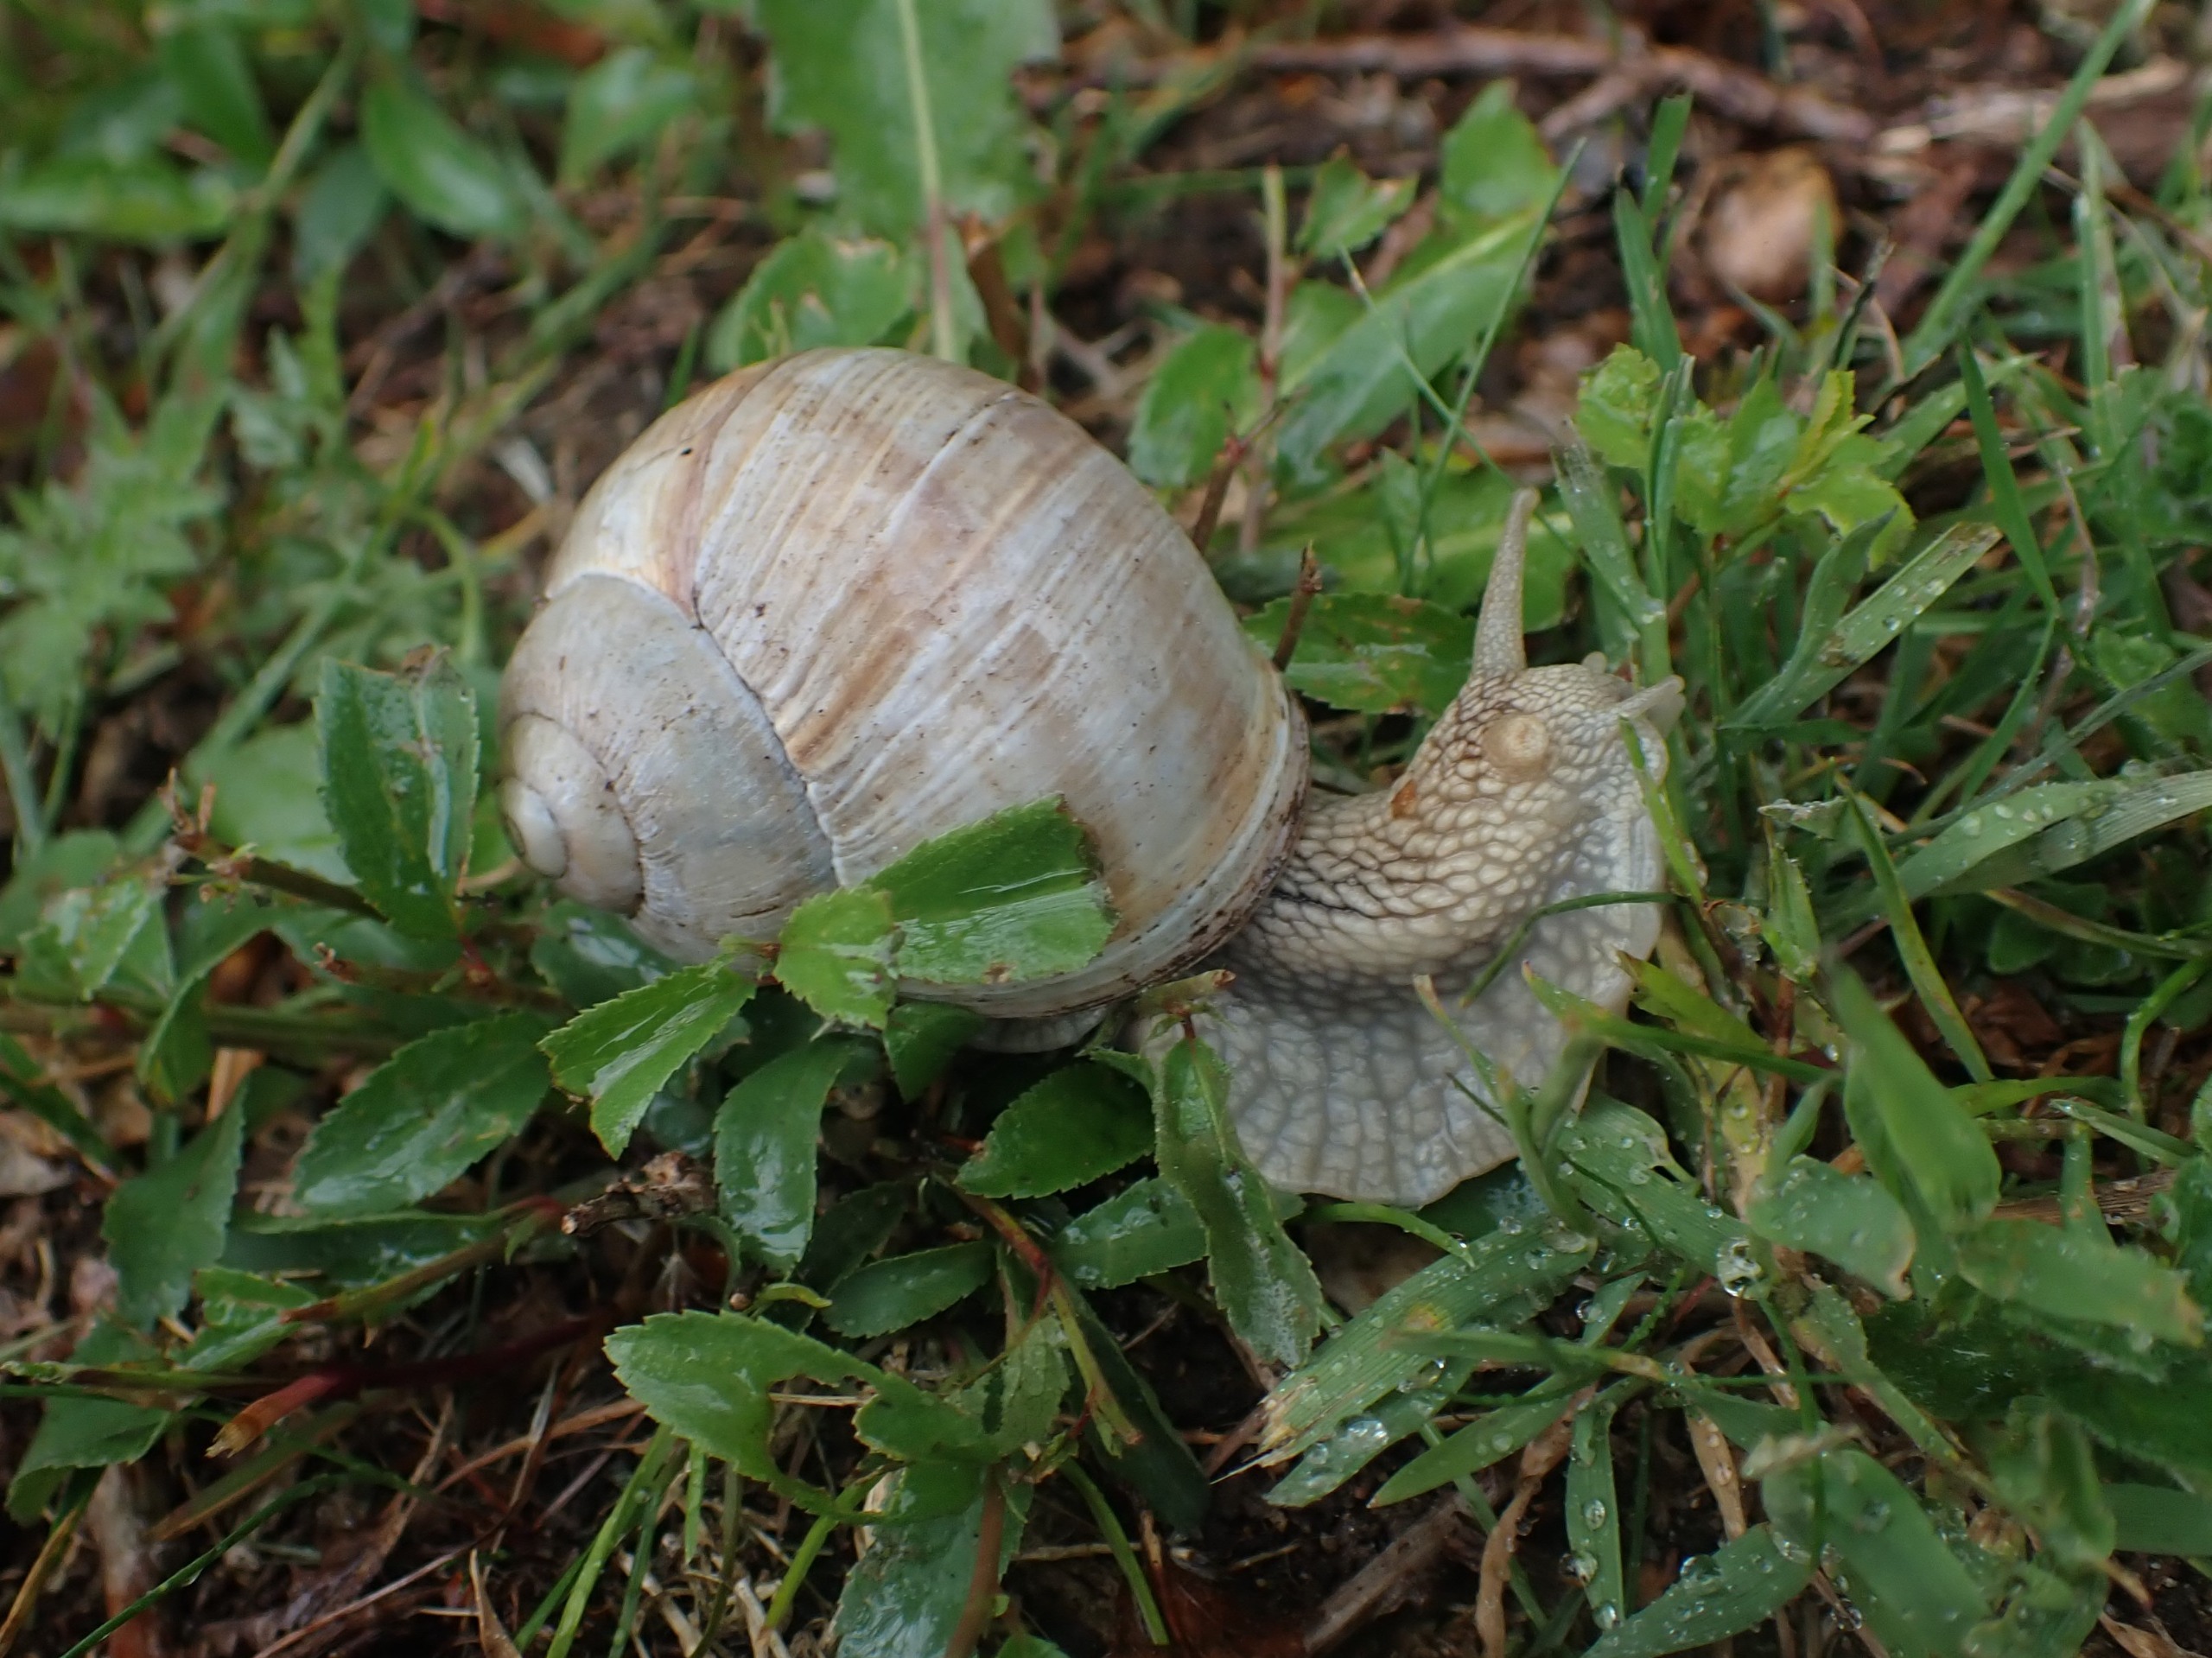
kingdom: Animalia
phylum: Mollusca
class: Gastropoda
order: Stylommatophora
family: Helicidae
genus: Helix
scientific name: Helix pomatia
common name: Vinbjergsnegl
